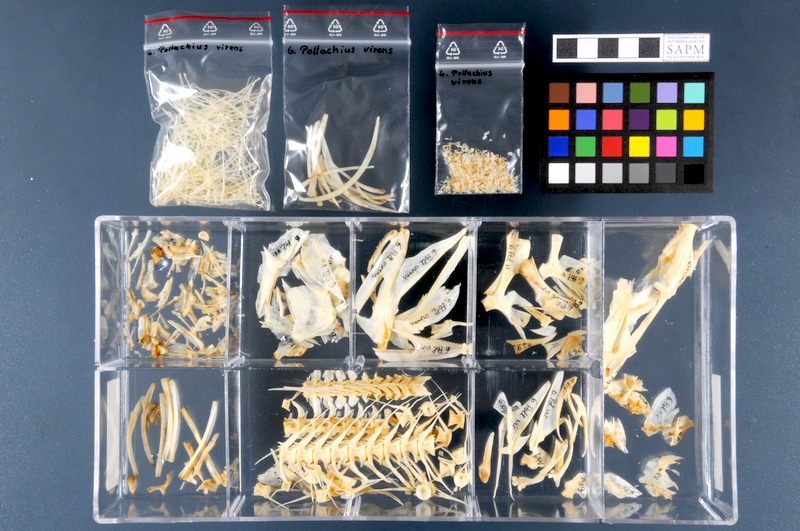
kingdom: Animalia
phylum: Chordata
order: Gadiformes
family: Gadidae
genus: Pollachius
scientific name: Pollachius virens
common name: Saithe
